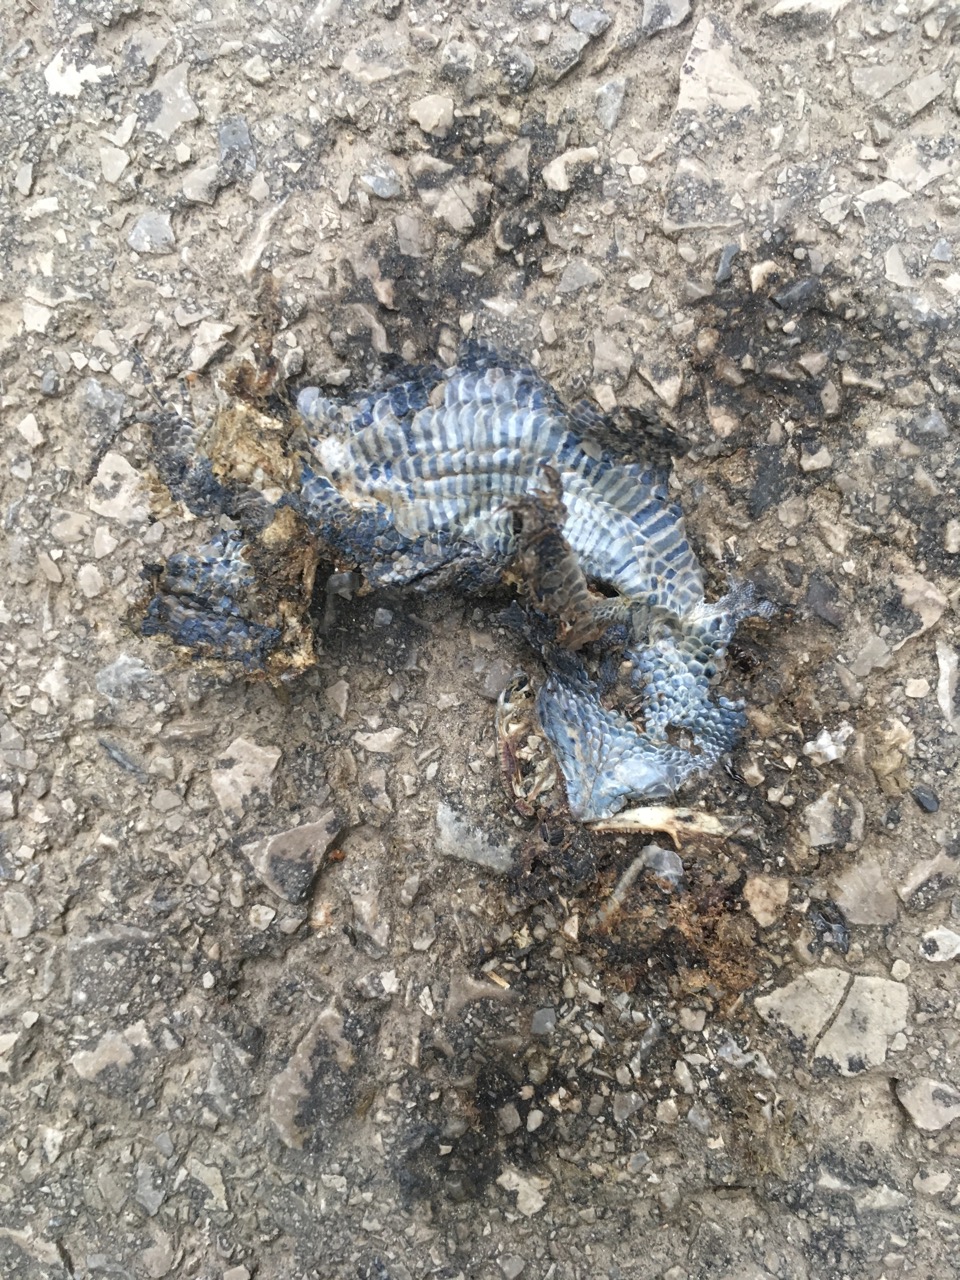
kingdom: Animalia
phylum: Chordata
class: Squamata
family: Lacertidae
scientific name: Lacertidae
